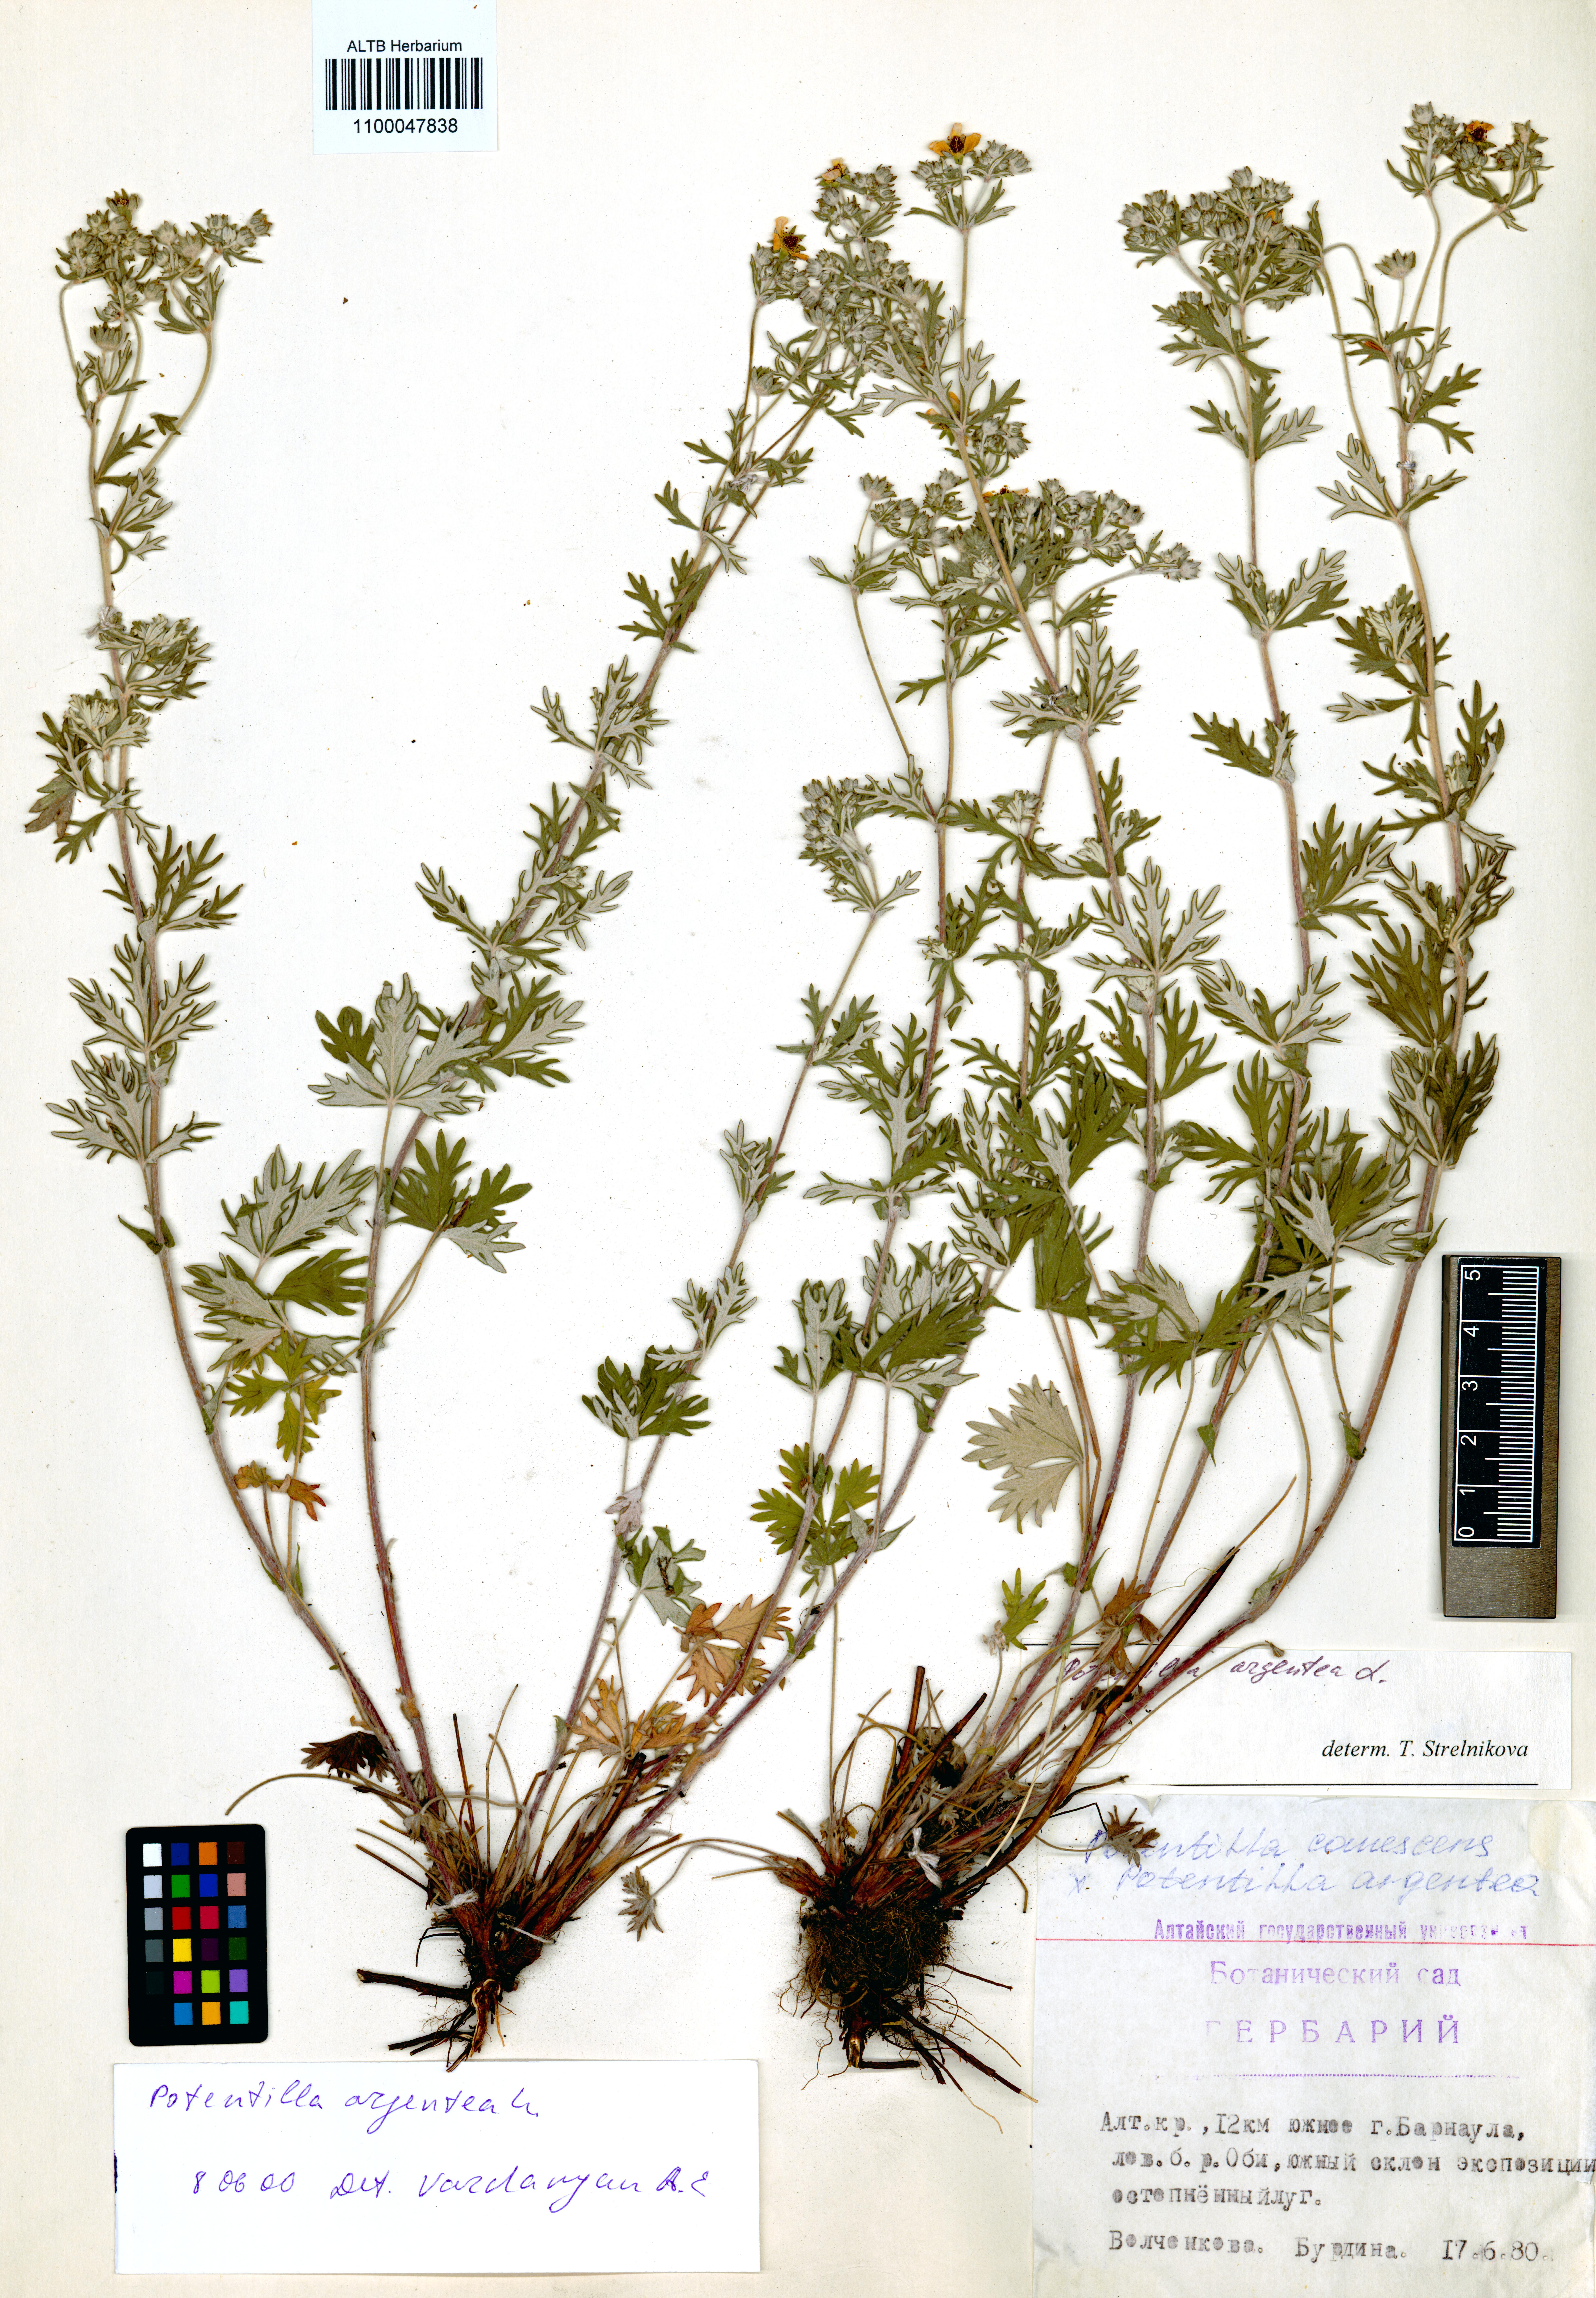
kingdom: Plantae
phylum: Tracheophyta
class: Magnoliopsida
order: Rosales
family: Rosaceae
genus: Potentilla
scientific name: Potentilla argentea
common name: Hoary cinquefoil
